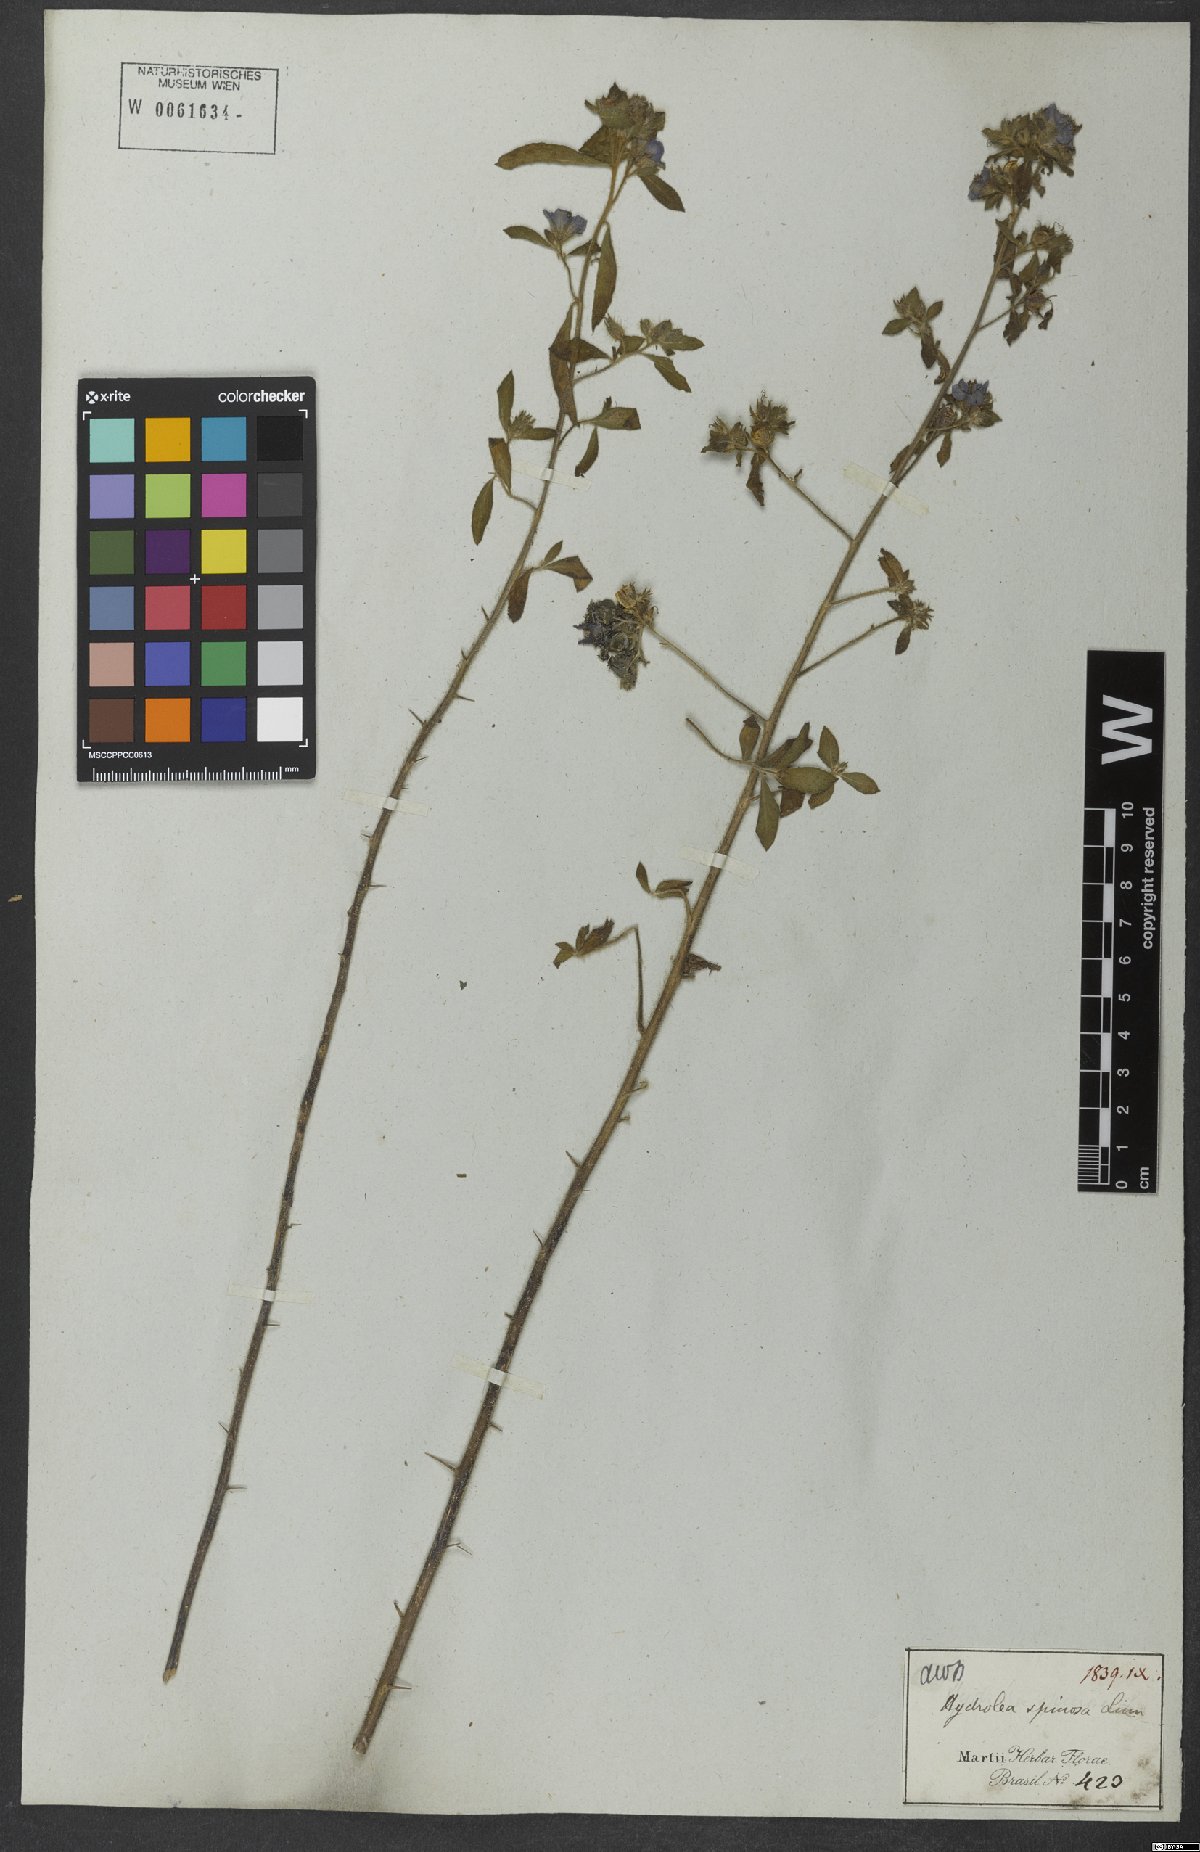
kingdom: Plantae
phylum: Tracheophyta
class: Magnoliopsida
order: Solanales
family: Hydroleaceae
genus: Hydrolea
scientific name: Hydrolea spinosa
